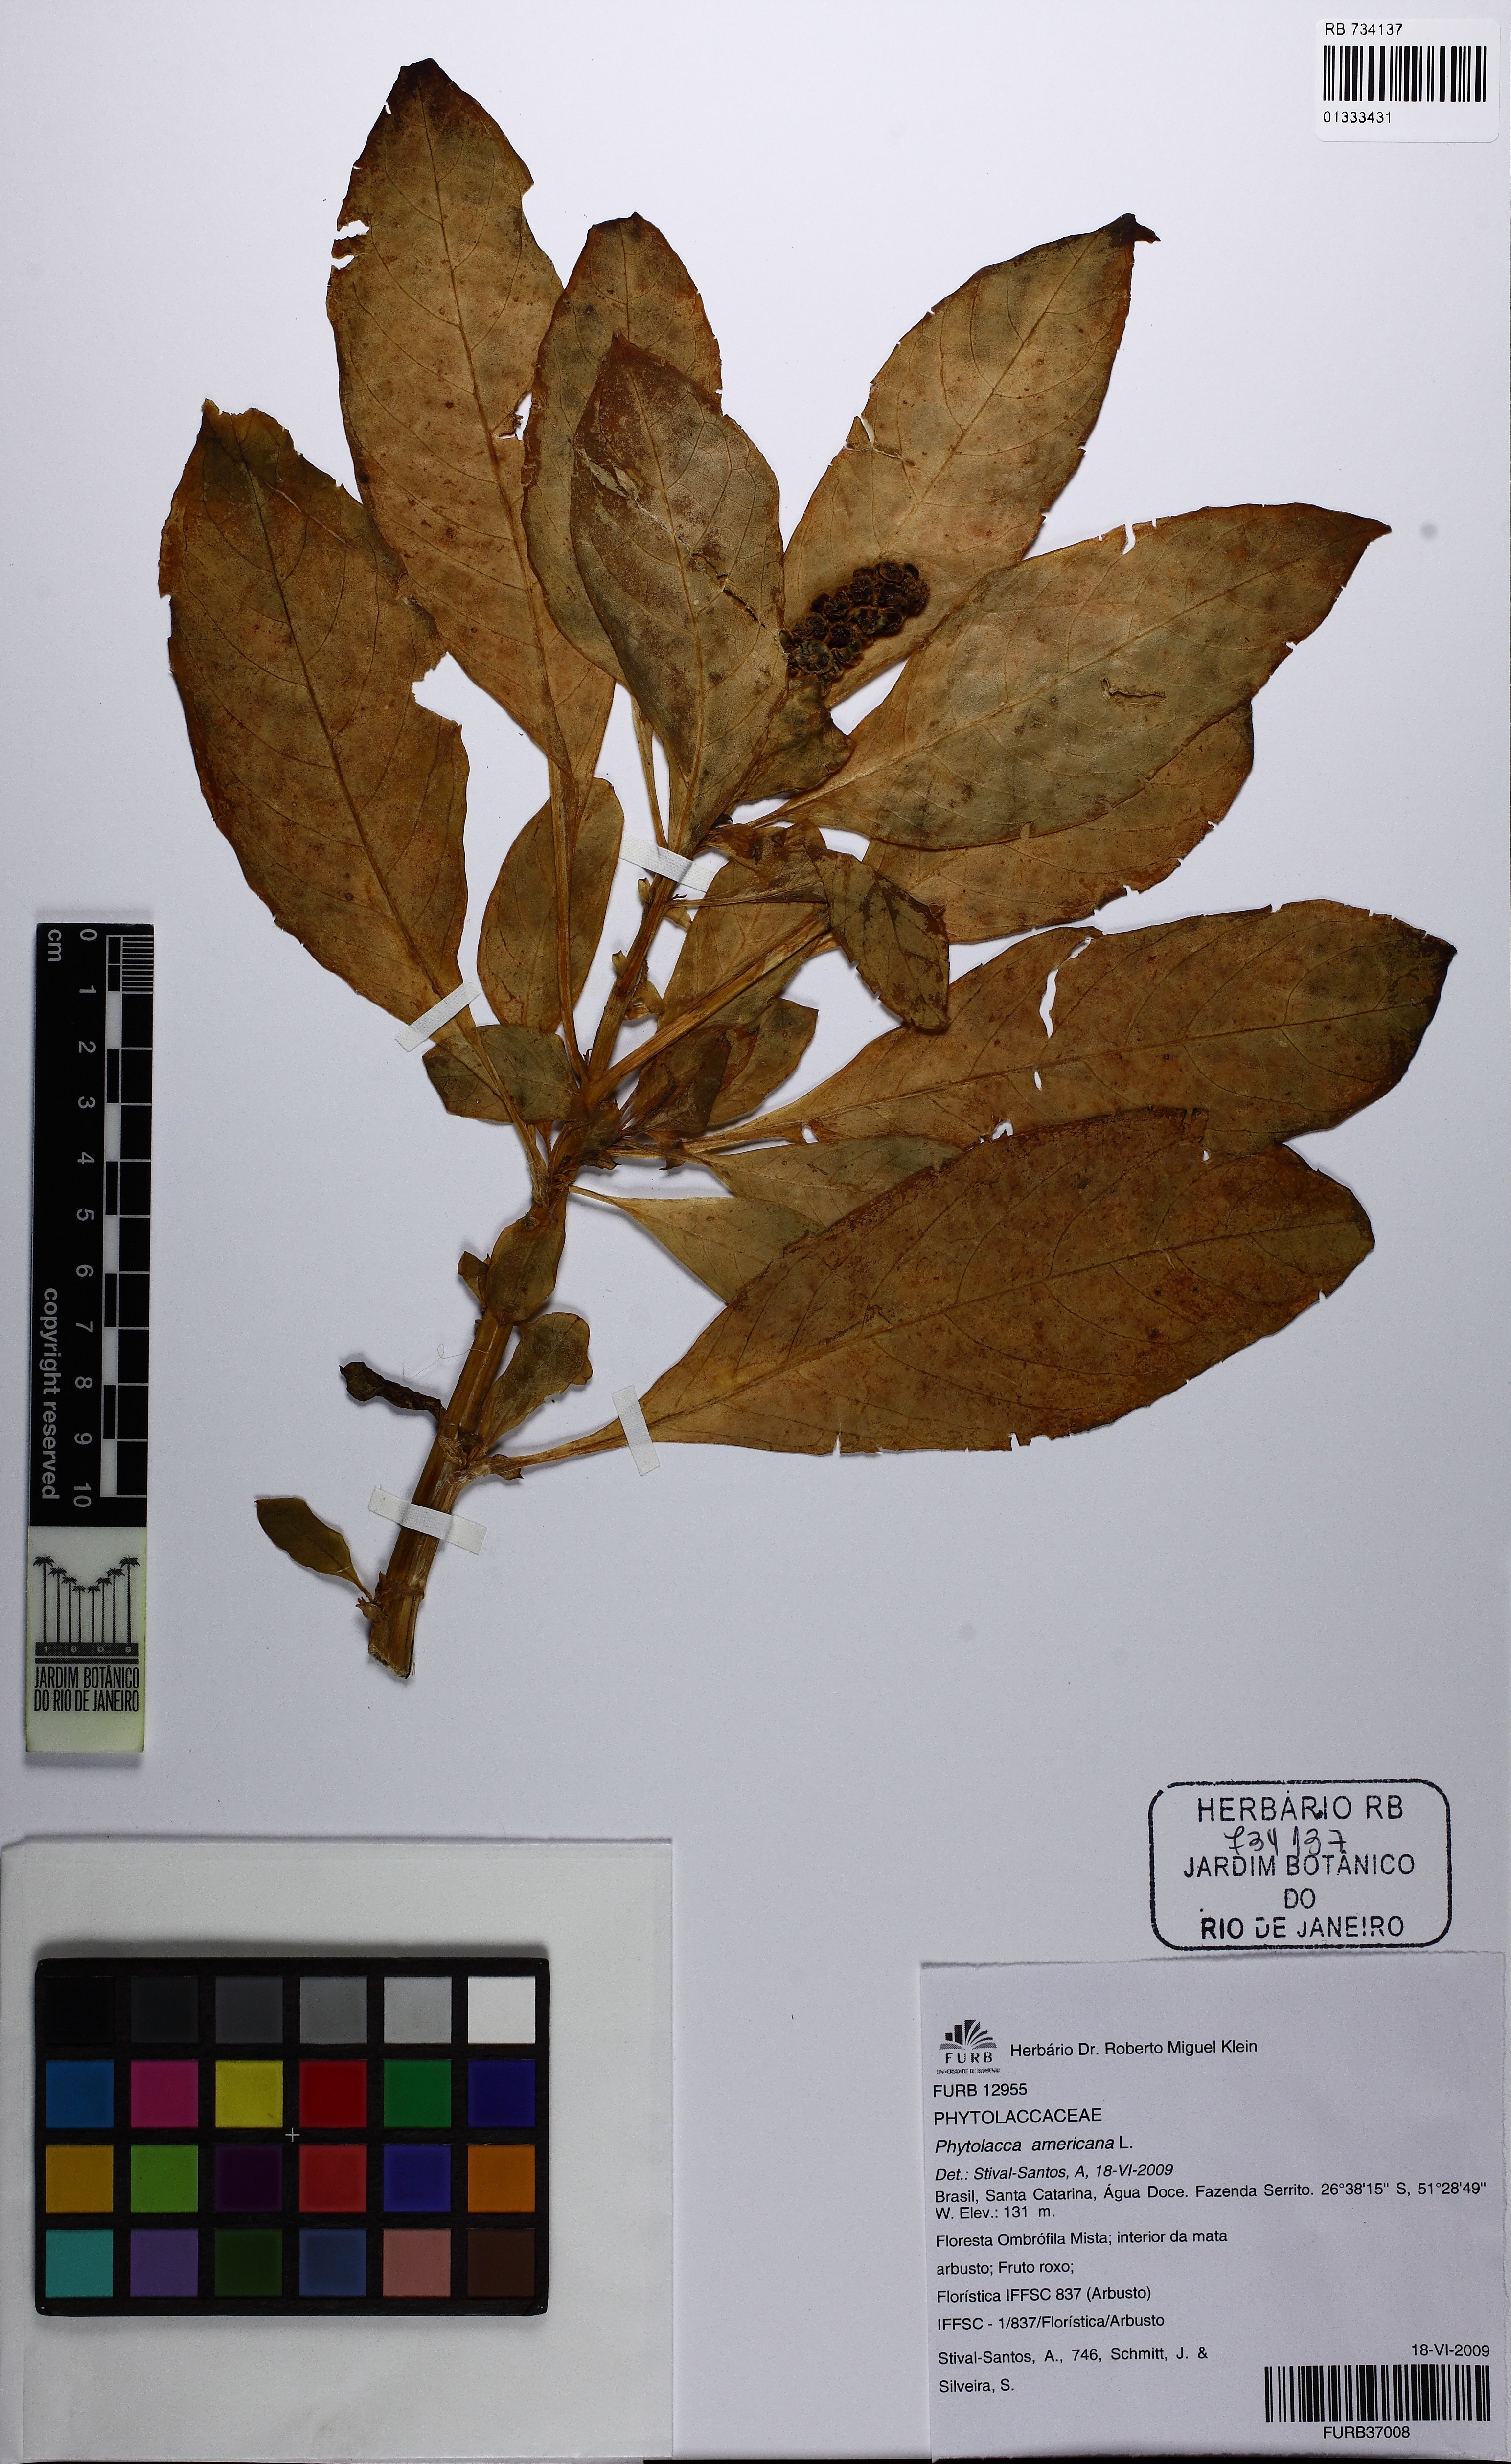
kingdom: Plantae
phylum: Tracheophyta
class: Magnoliopsida
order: Caryophyllales
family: Phytolaccaceae
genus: Phytolacca
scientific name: Phytolacca americana
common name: American pokeweed
